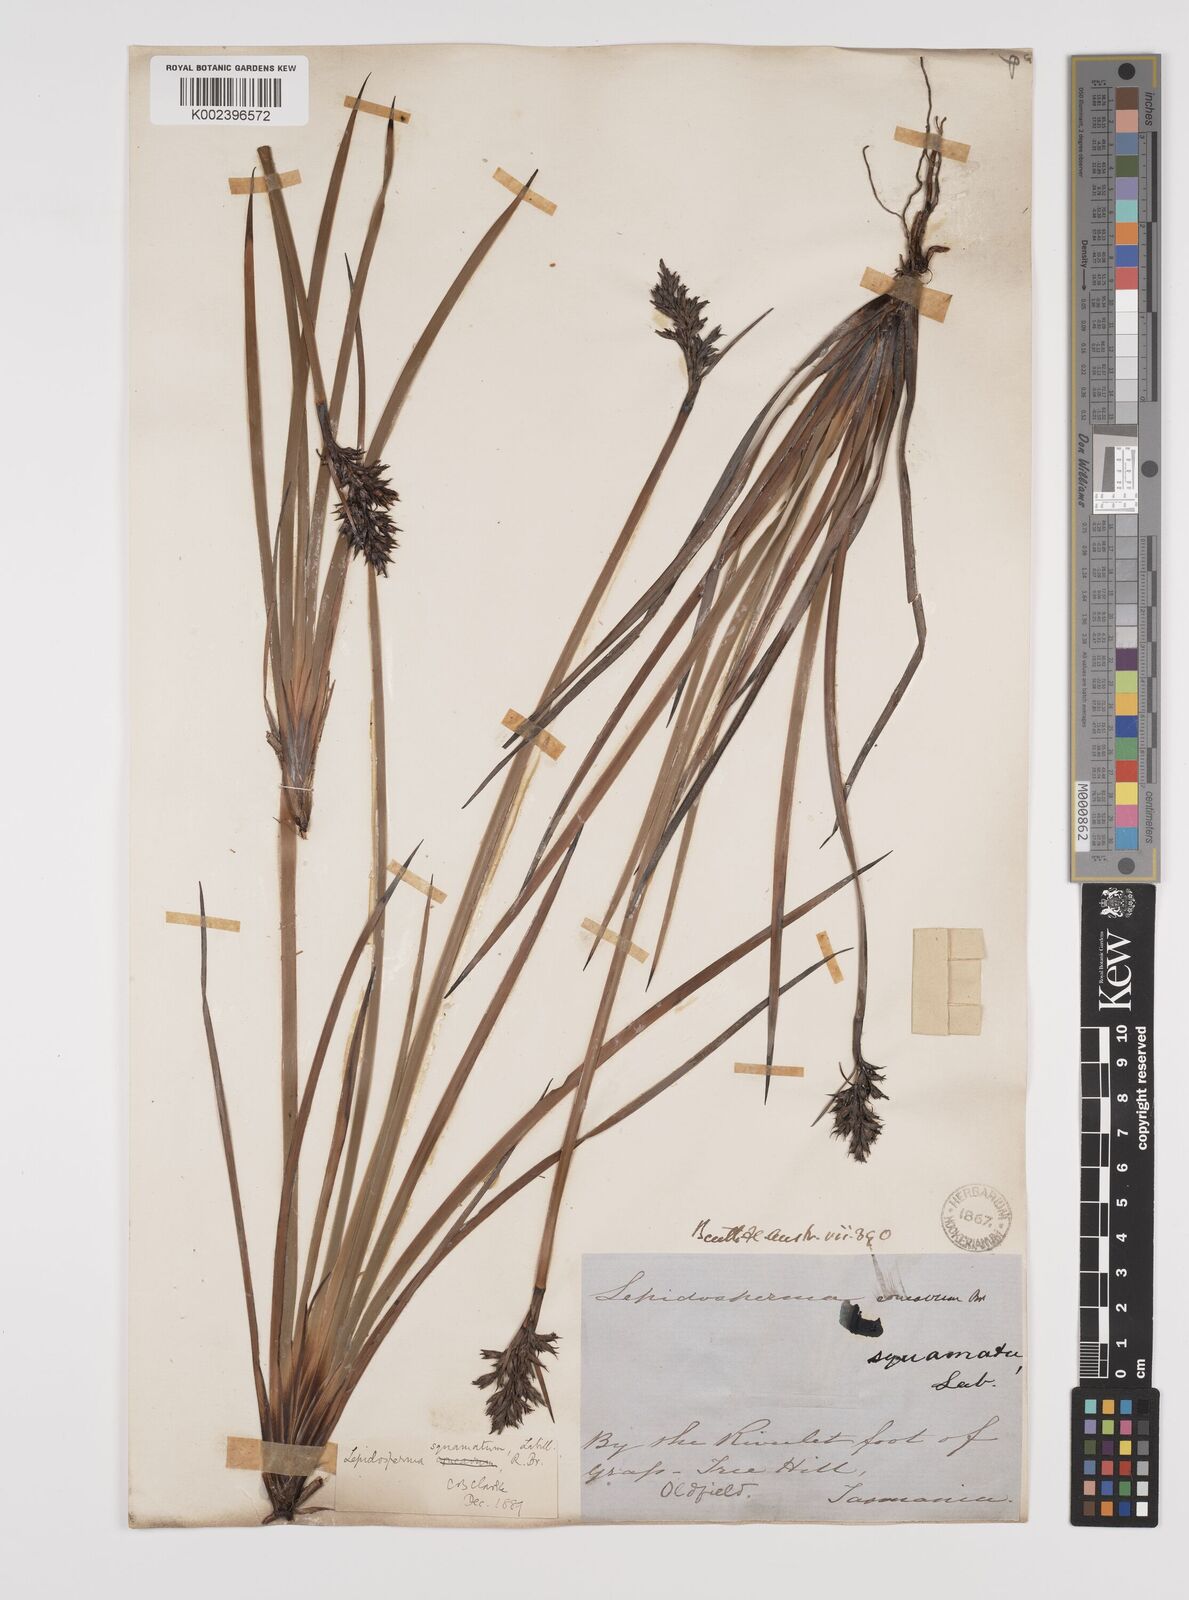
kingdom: Plantae
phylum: Tracheophyta
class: Liliopsida
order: Poales
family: Cyperaceae
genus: Lepidosperma
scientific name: Lepidosperma concavum
